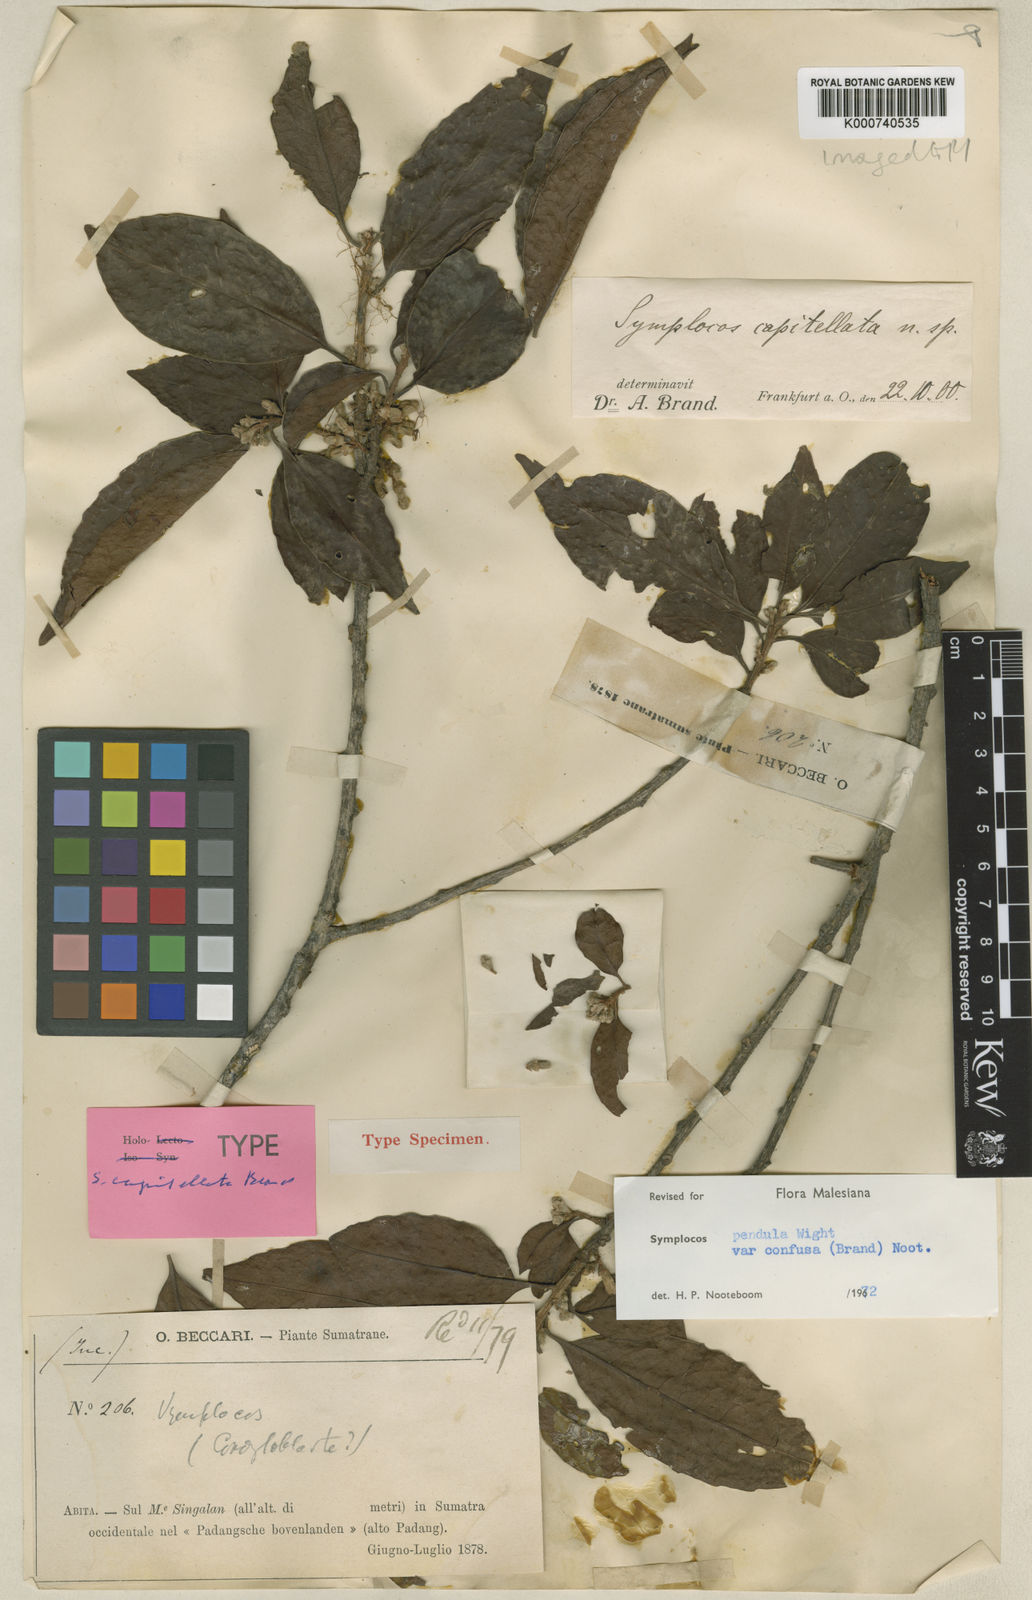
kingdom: Plantae
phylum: Tracheophyta
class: Magnoliopsida
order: Ericales
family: Symplocaceae
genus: Symplocos
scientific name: Symplocos pendula
